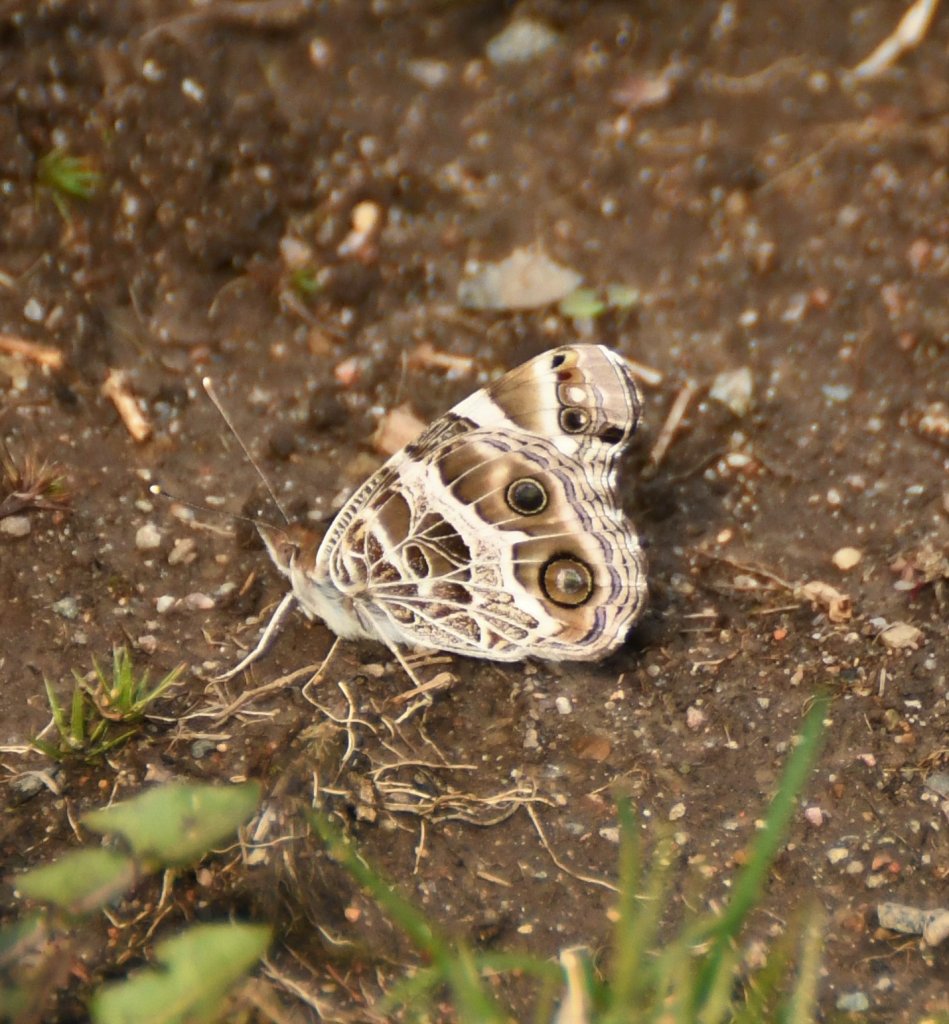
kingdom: Animalia
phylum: Arthropoda
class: Insecta
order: Lepidoptera
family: Nymphalidae
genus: Vanessa
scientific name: Vanessa virginiensis
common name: American Lady
